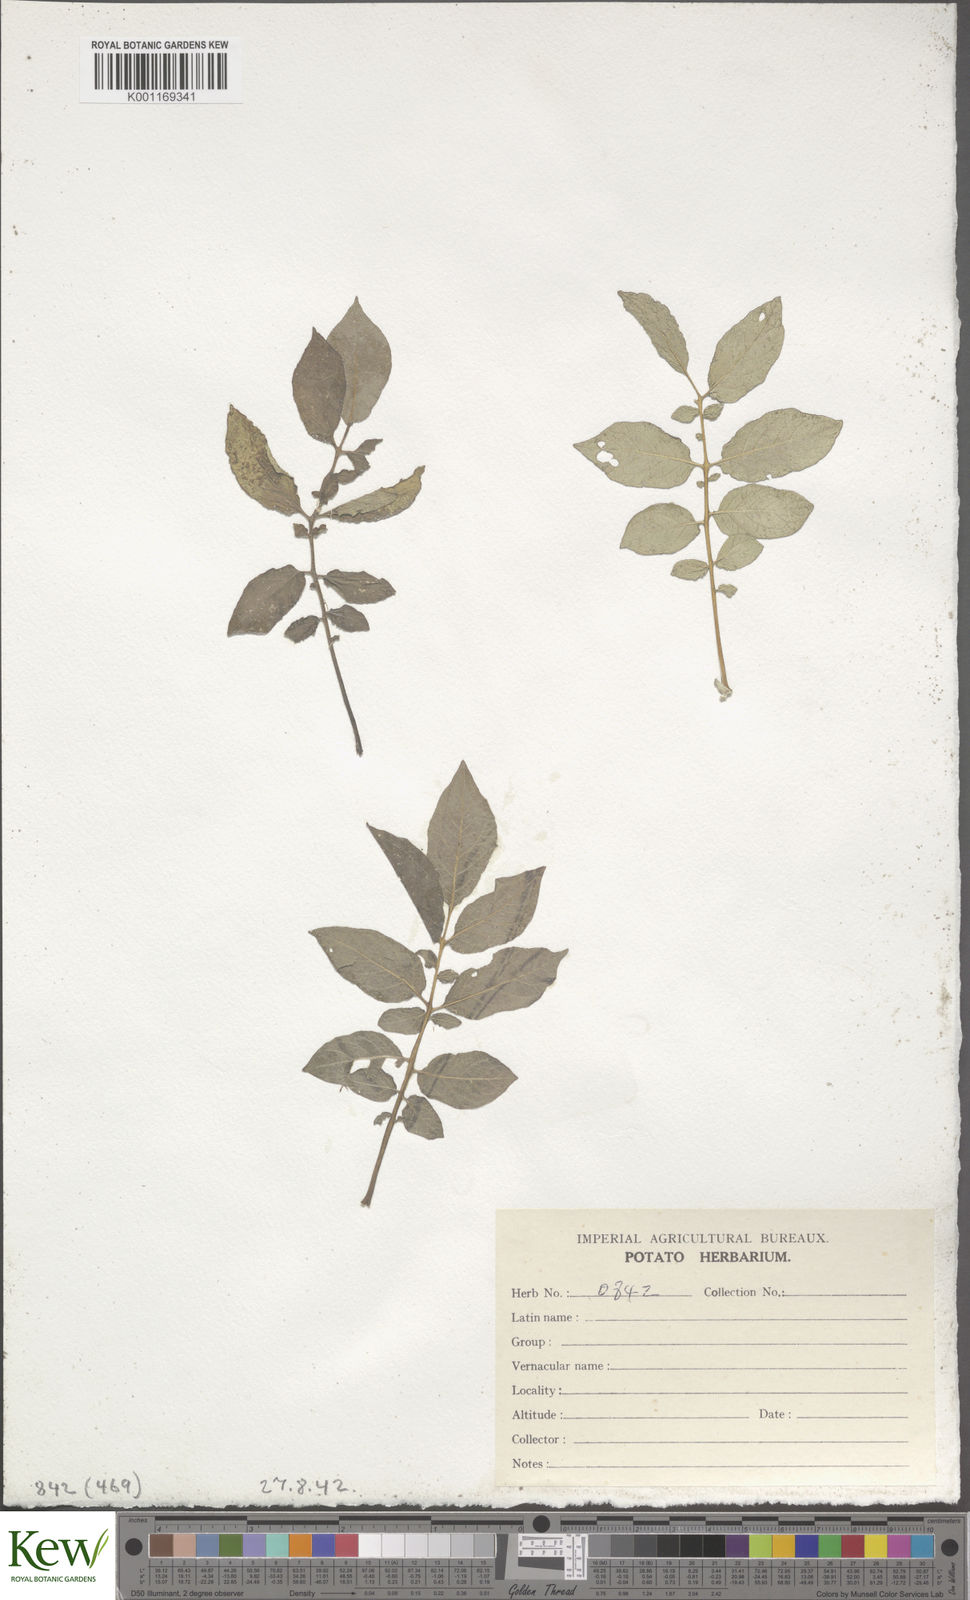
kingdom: Plantae
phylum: Tracheophyta
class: Magnoliopsida
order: Solanales
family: Solanaceae
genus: Solanum
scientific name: Solanum chaucha
